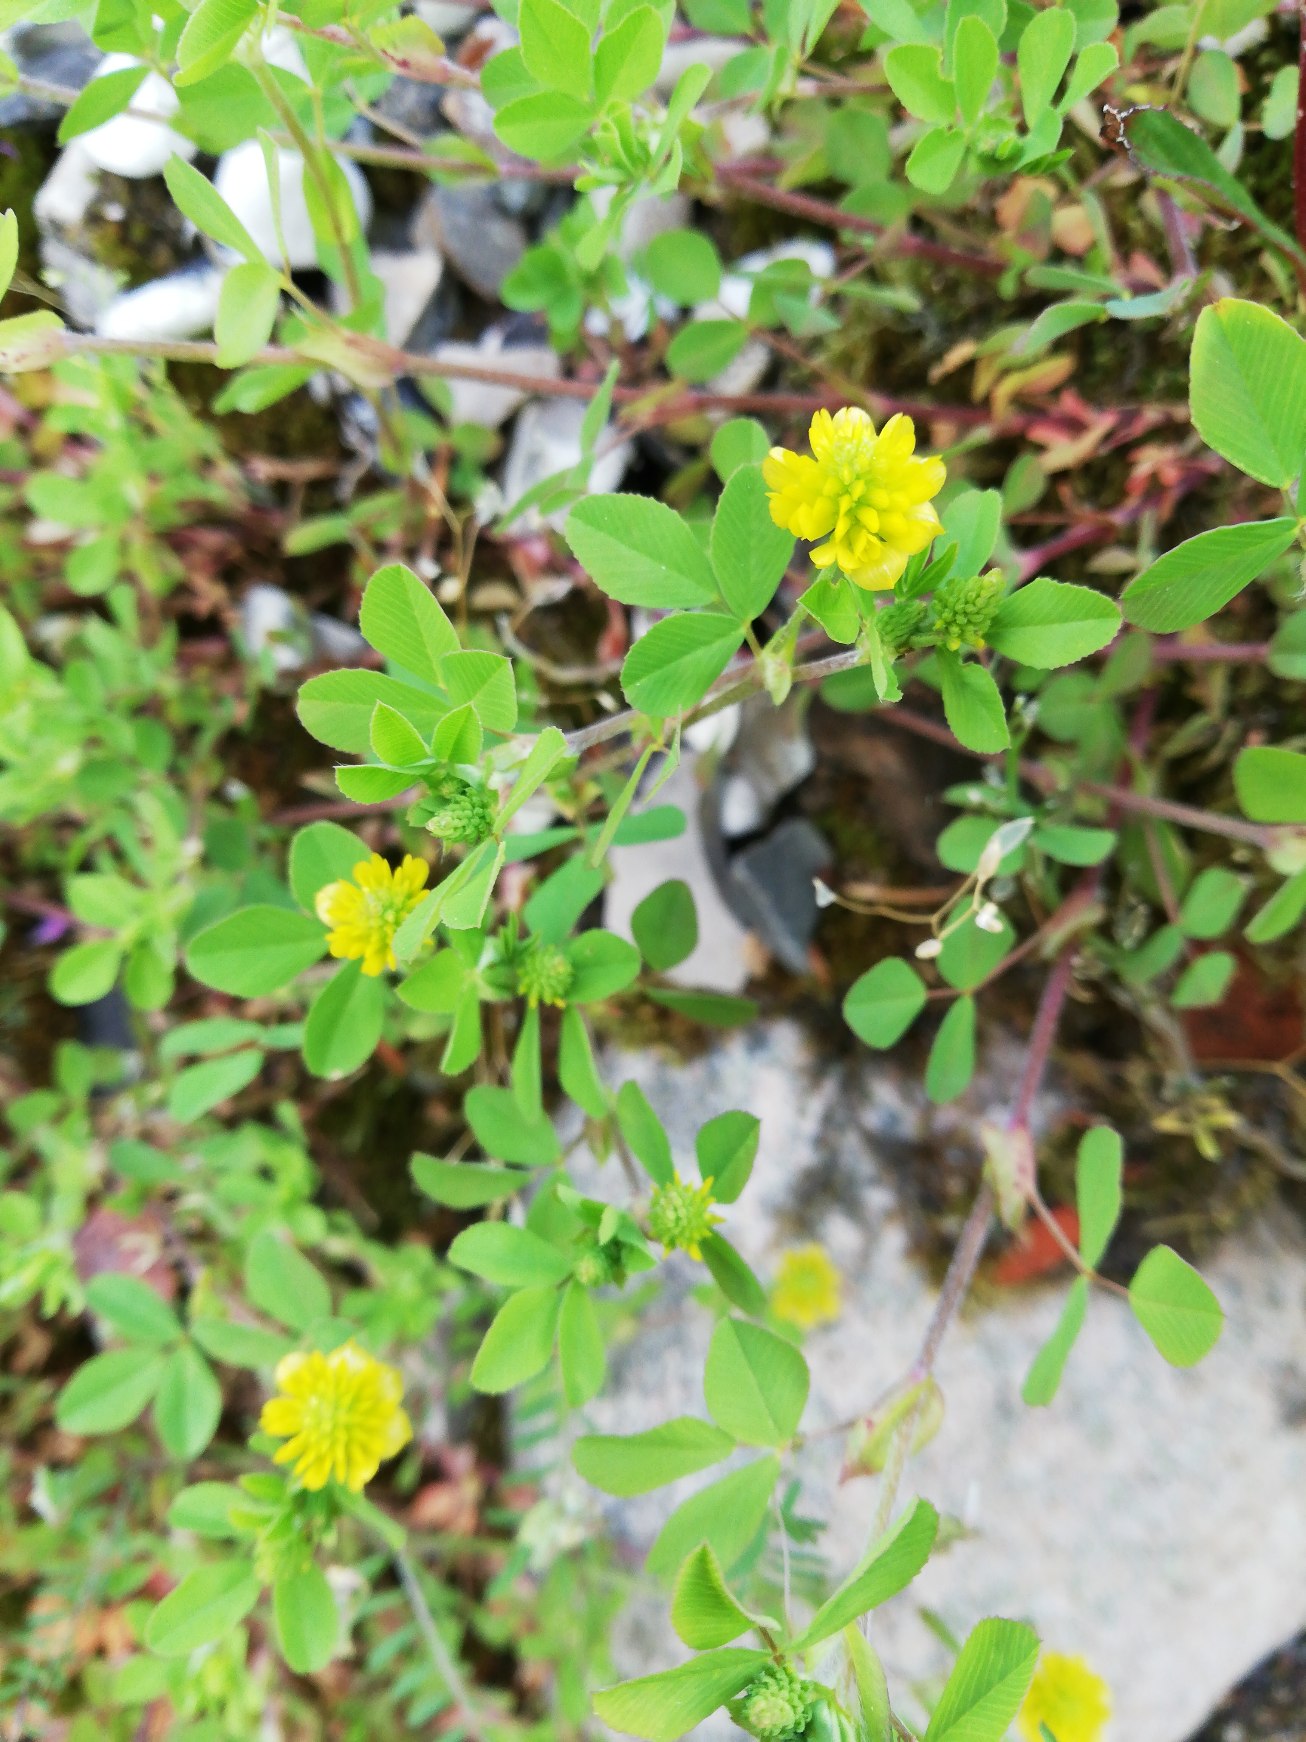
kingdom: Plantae
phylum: Tracheophyta
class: Magnoliopsida
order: Fabales
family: Fabaceae
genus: Trifolium
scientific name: Trifolium campestre
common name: Gul kløver
